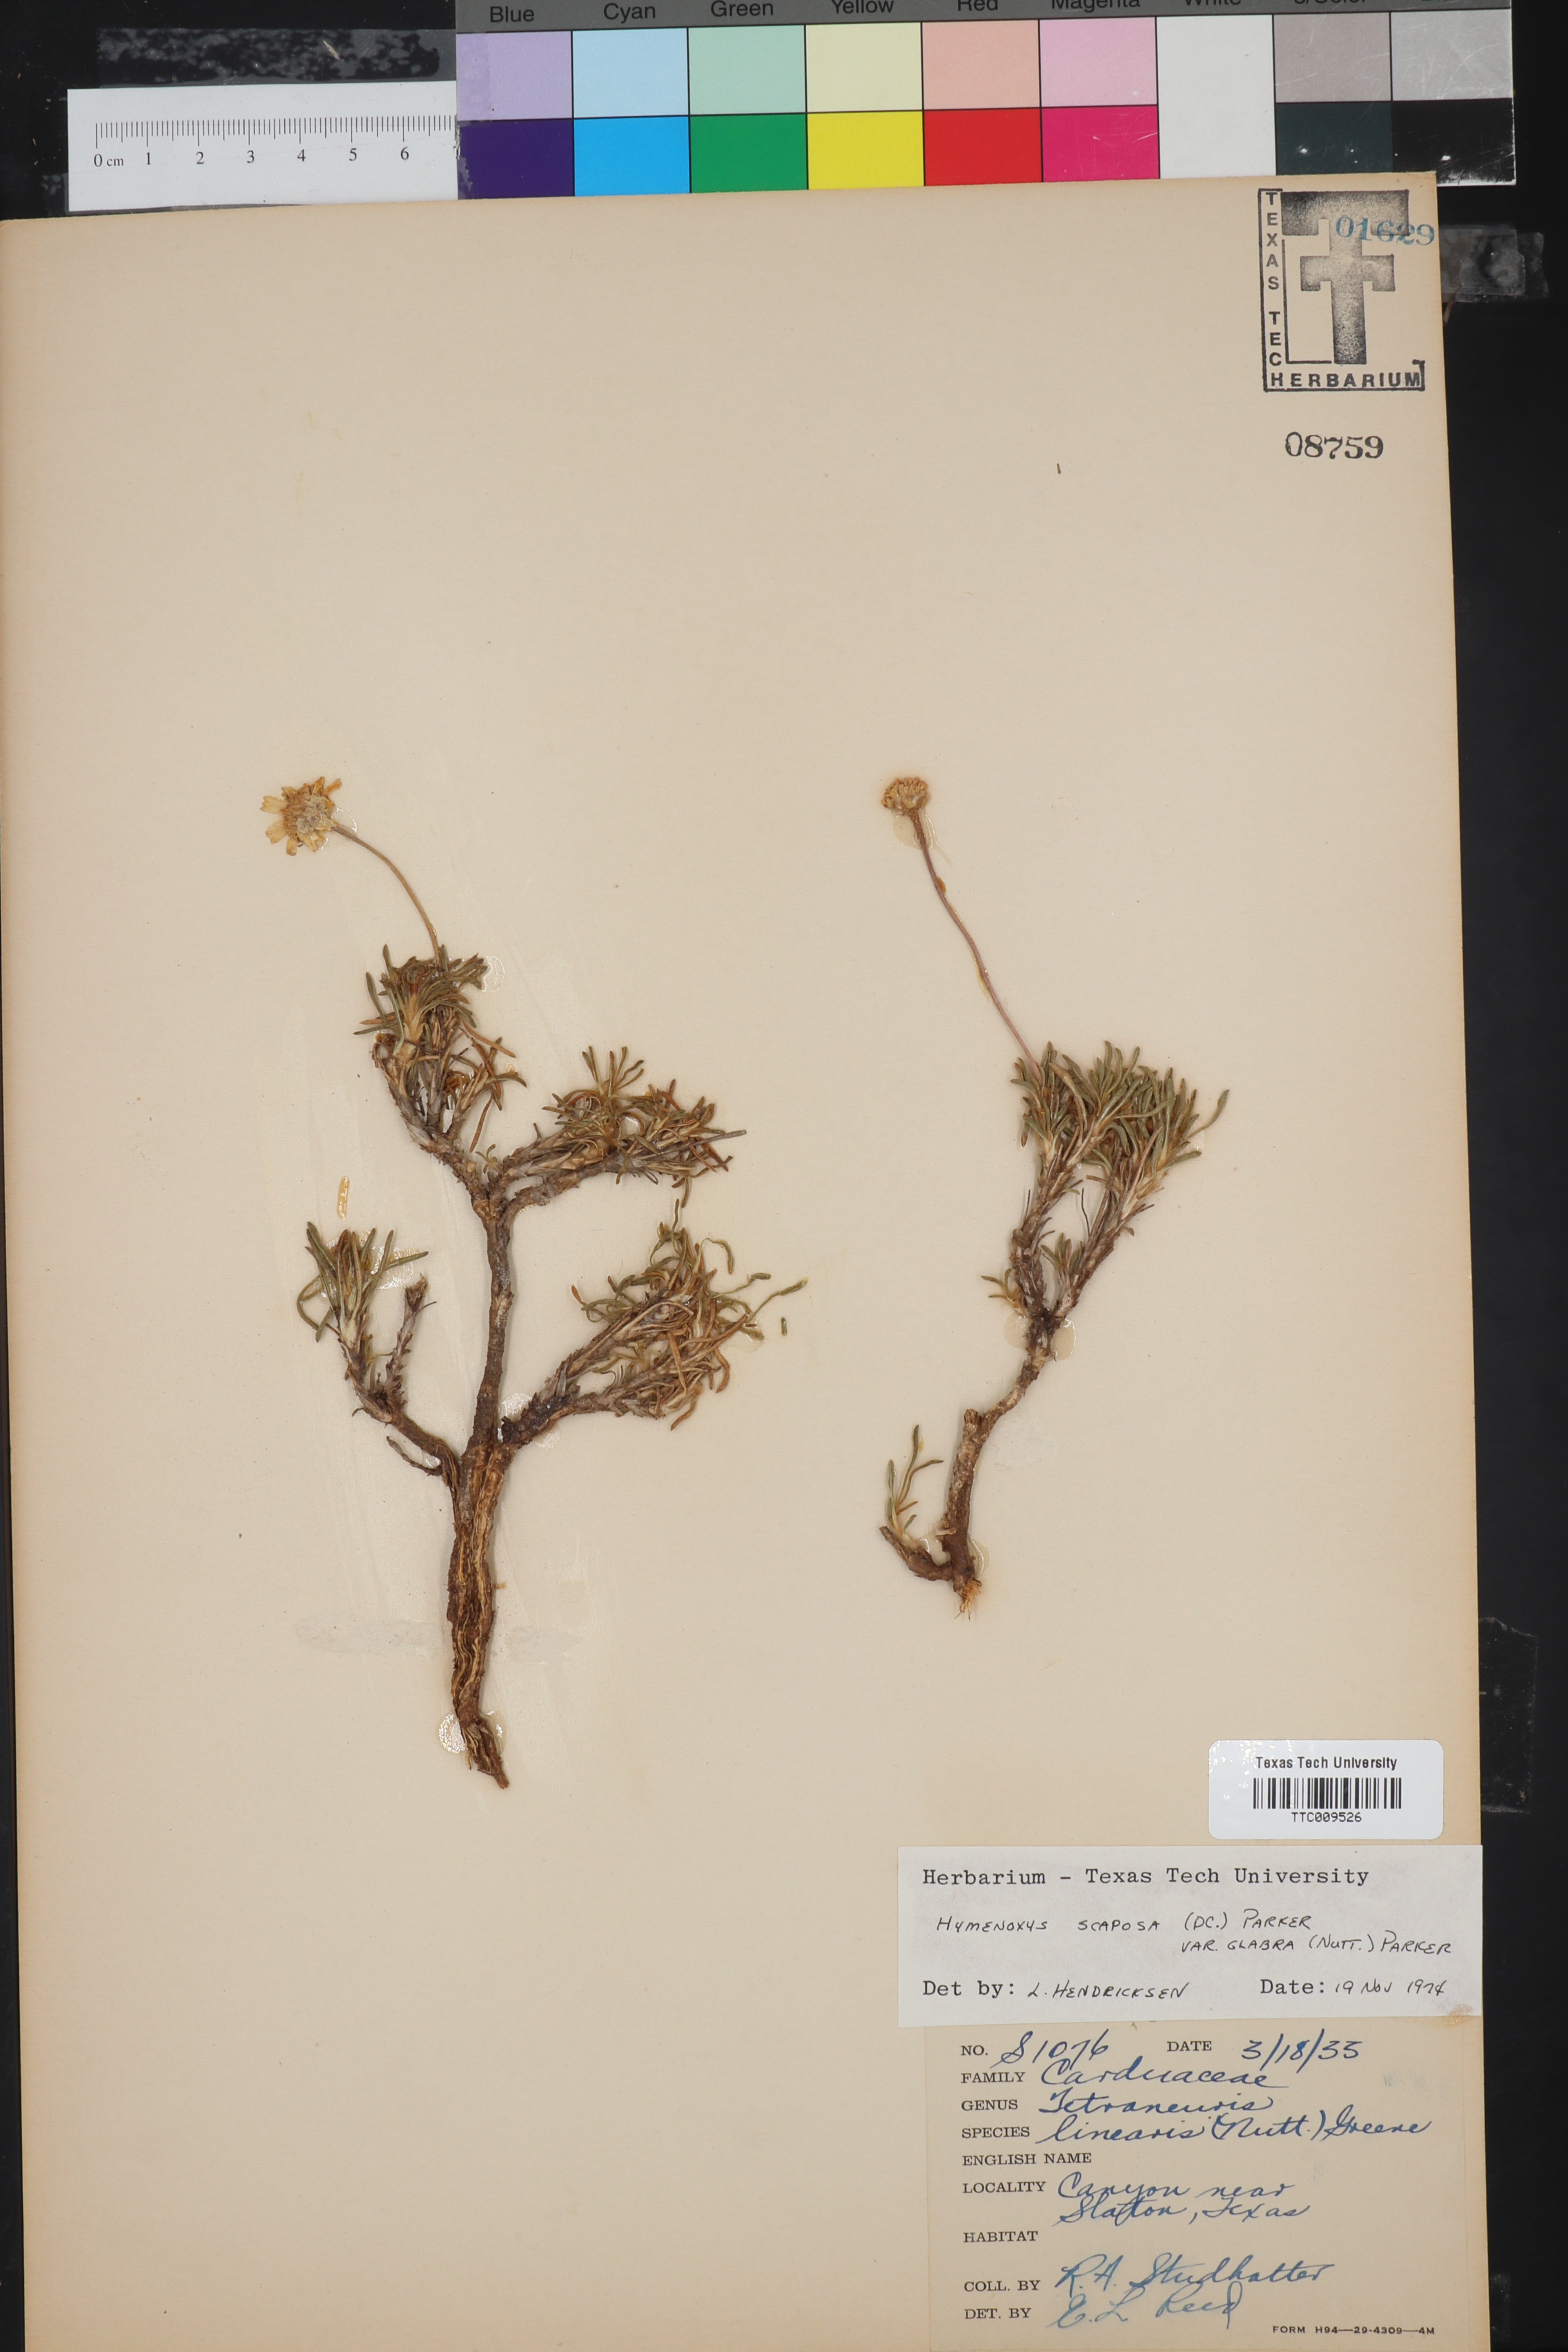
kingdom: Plantae
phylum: Tracheophyta
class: Magnoliopsida
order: Asterales
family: Asteraceae
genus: Tetraneuris
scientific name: Tetraneuris scaposa
